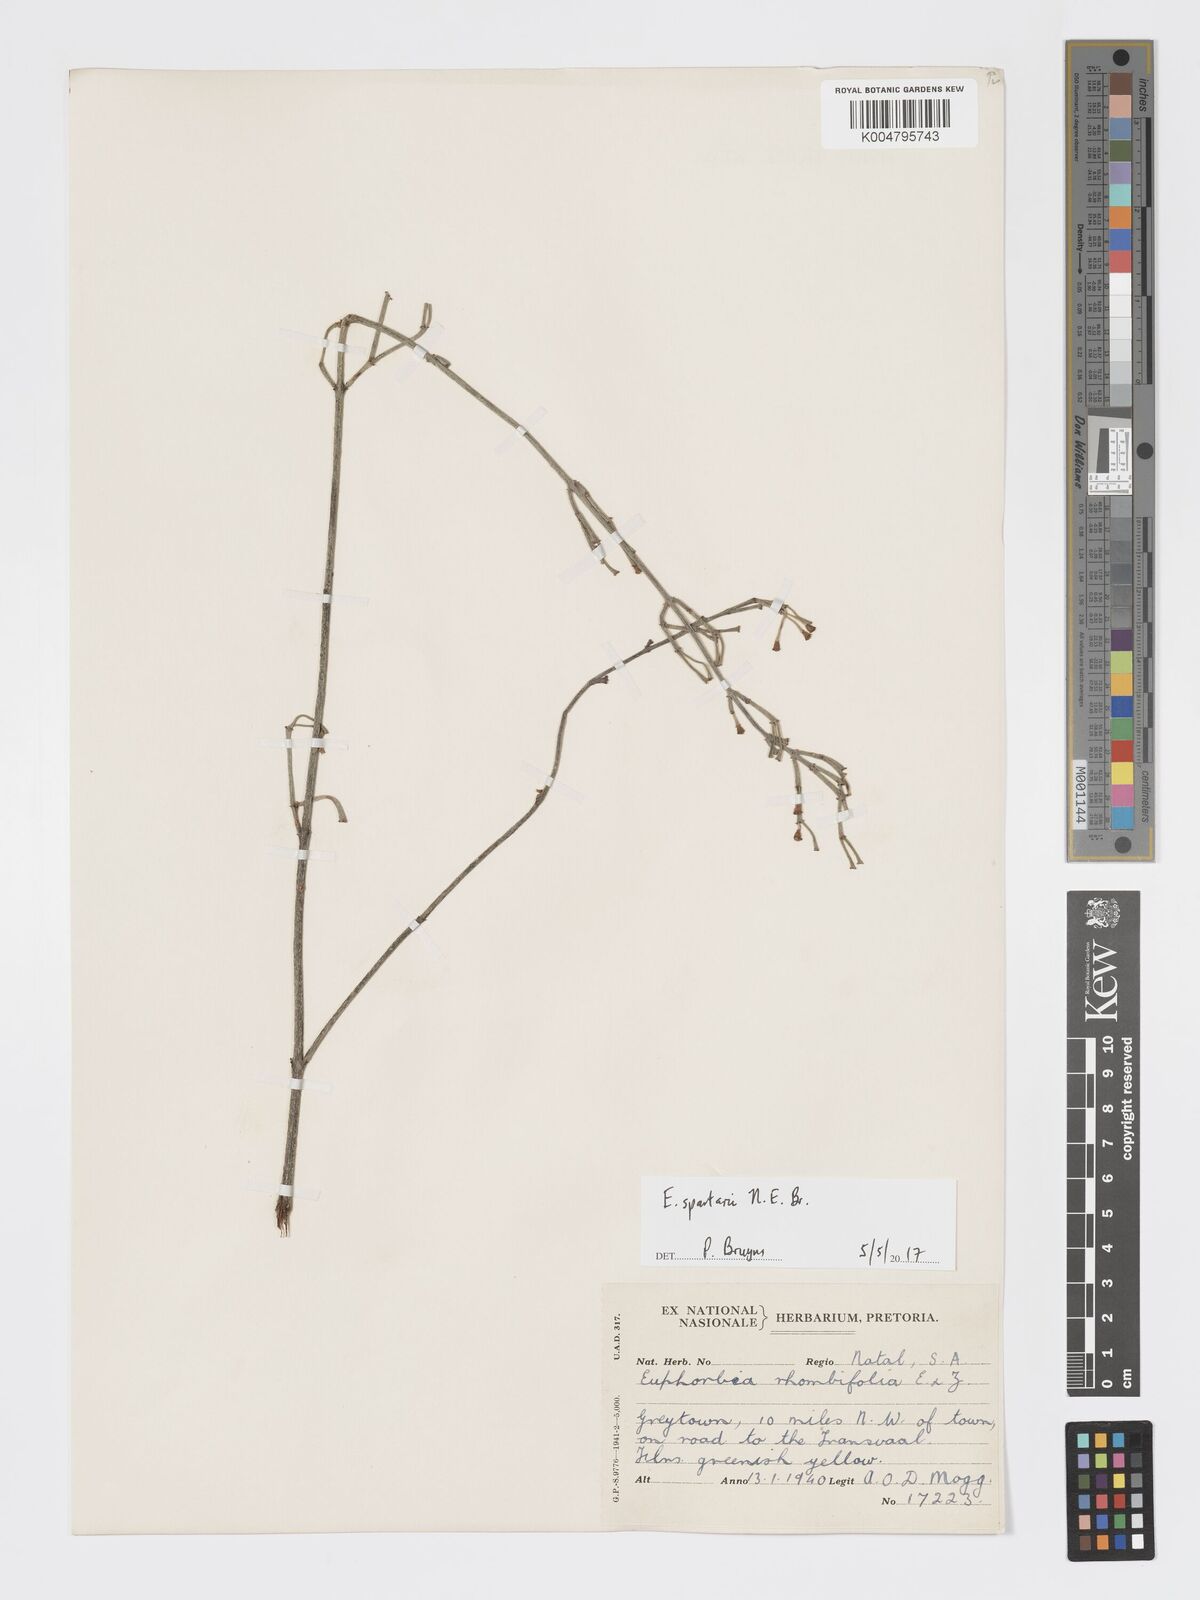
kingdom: Plantae
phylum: Tracheophyta
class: Magnoliopsida
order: Malpighiales
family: Euphorbiaceae
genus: Euphorbia
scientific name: Euphorbia spartaria
